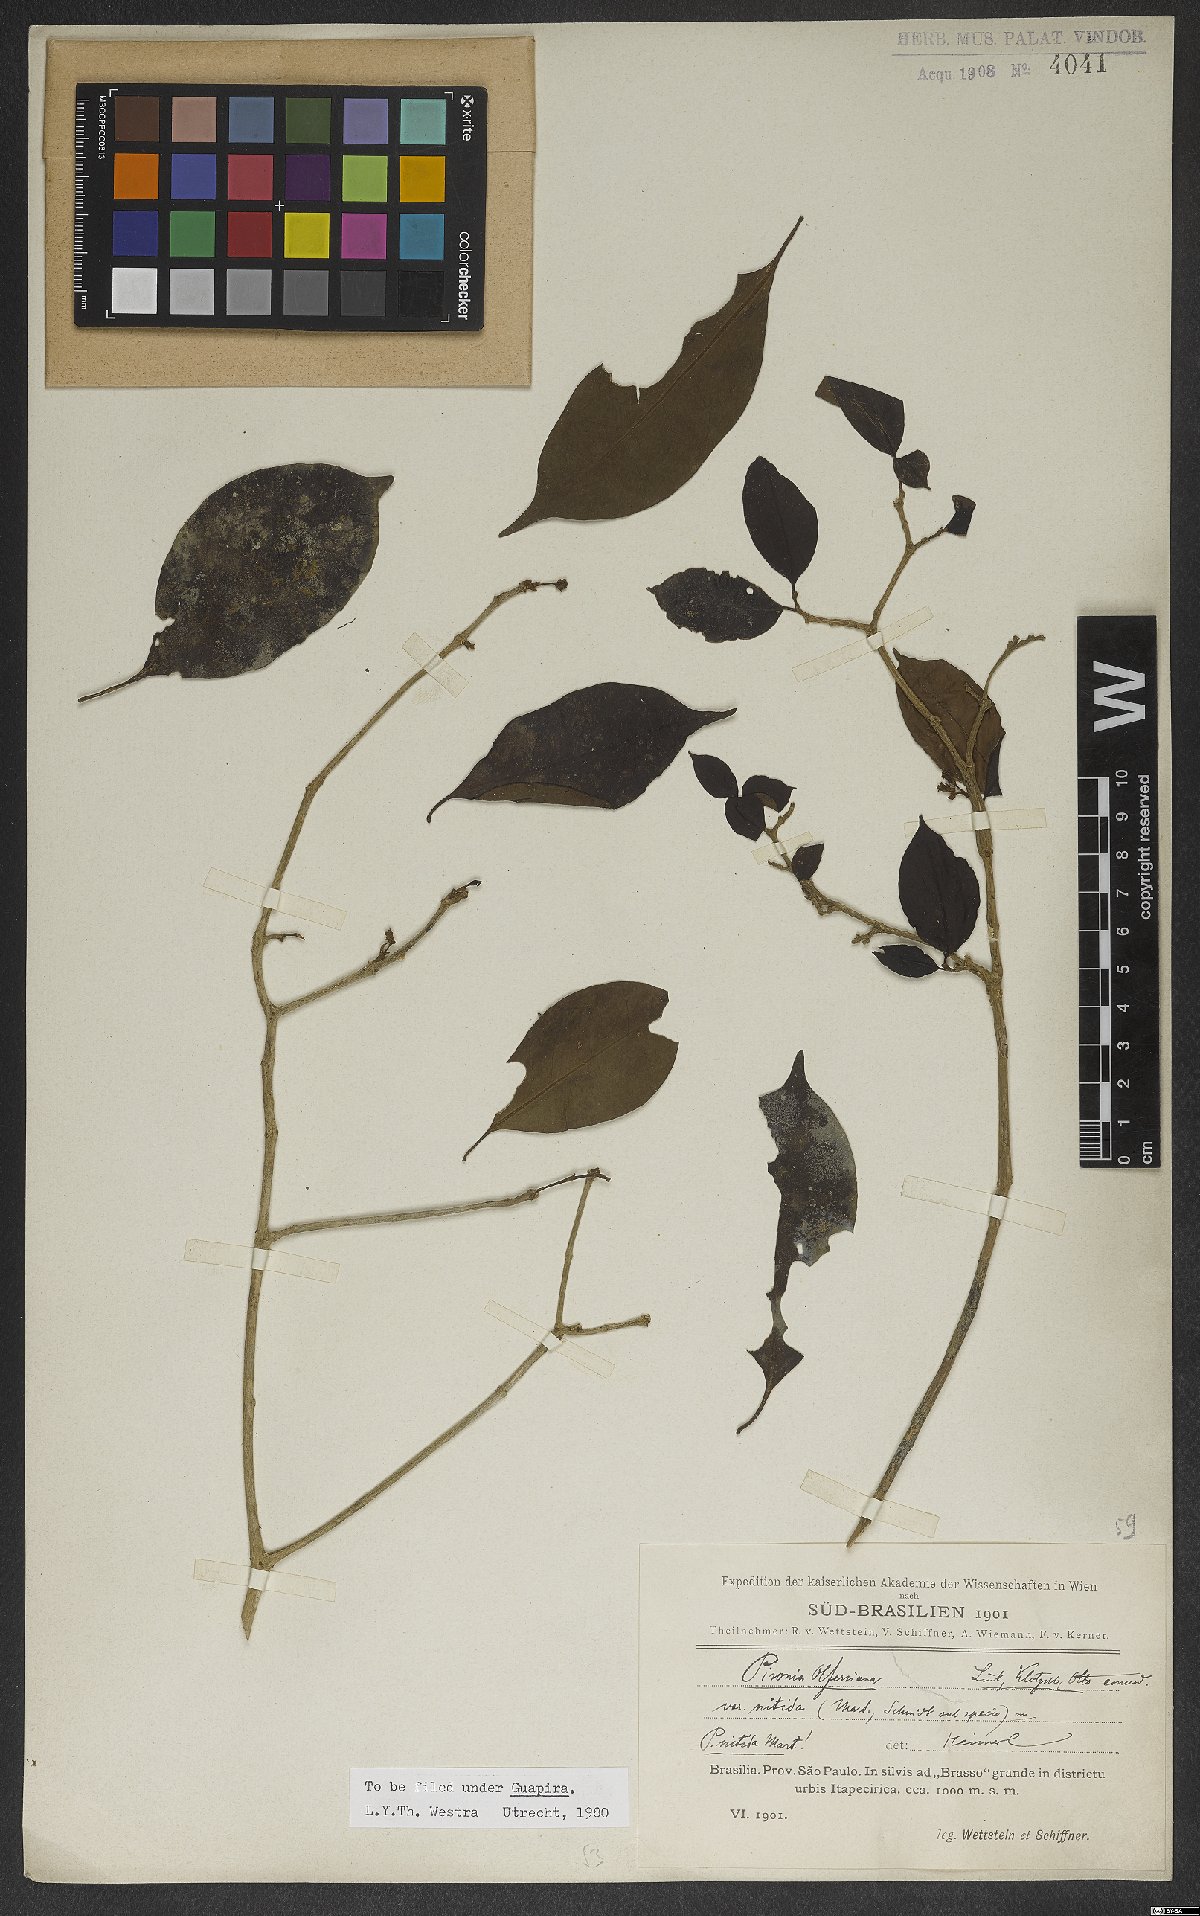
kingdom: Plantae
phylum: Tracheophyta
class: Magnoliopsida
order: Caryophyllales
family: Nyctaginaceae
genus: Guapira
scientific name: Guapira nitida
